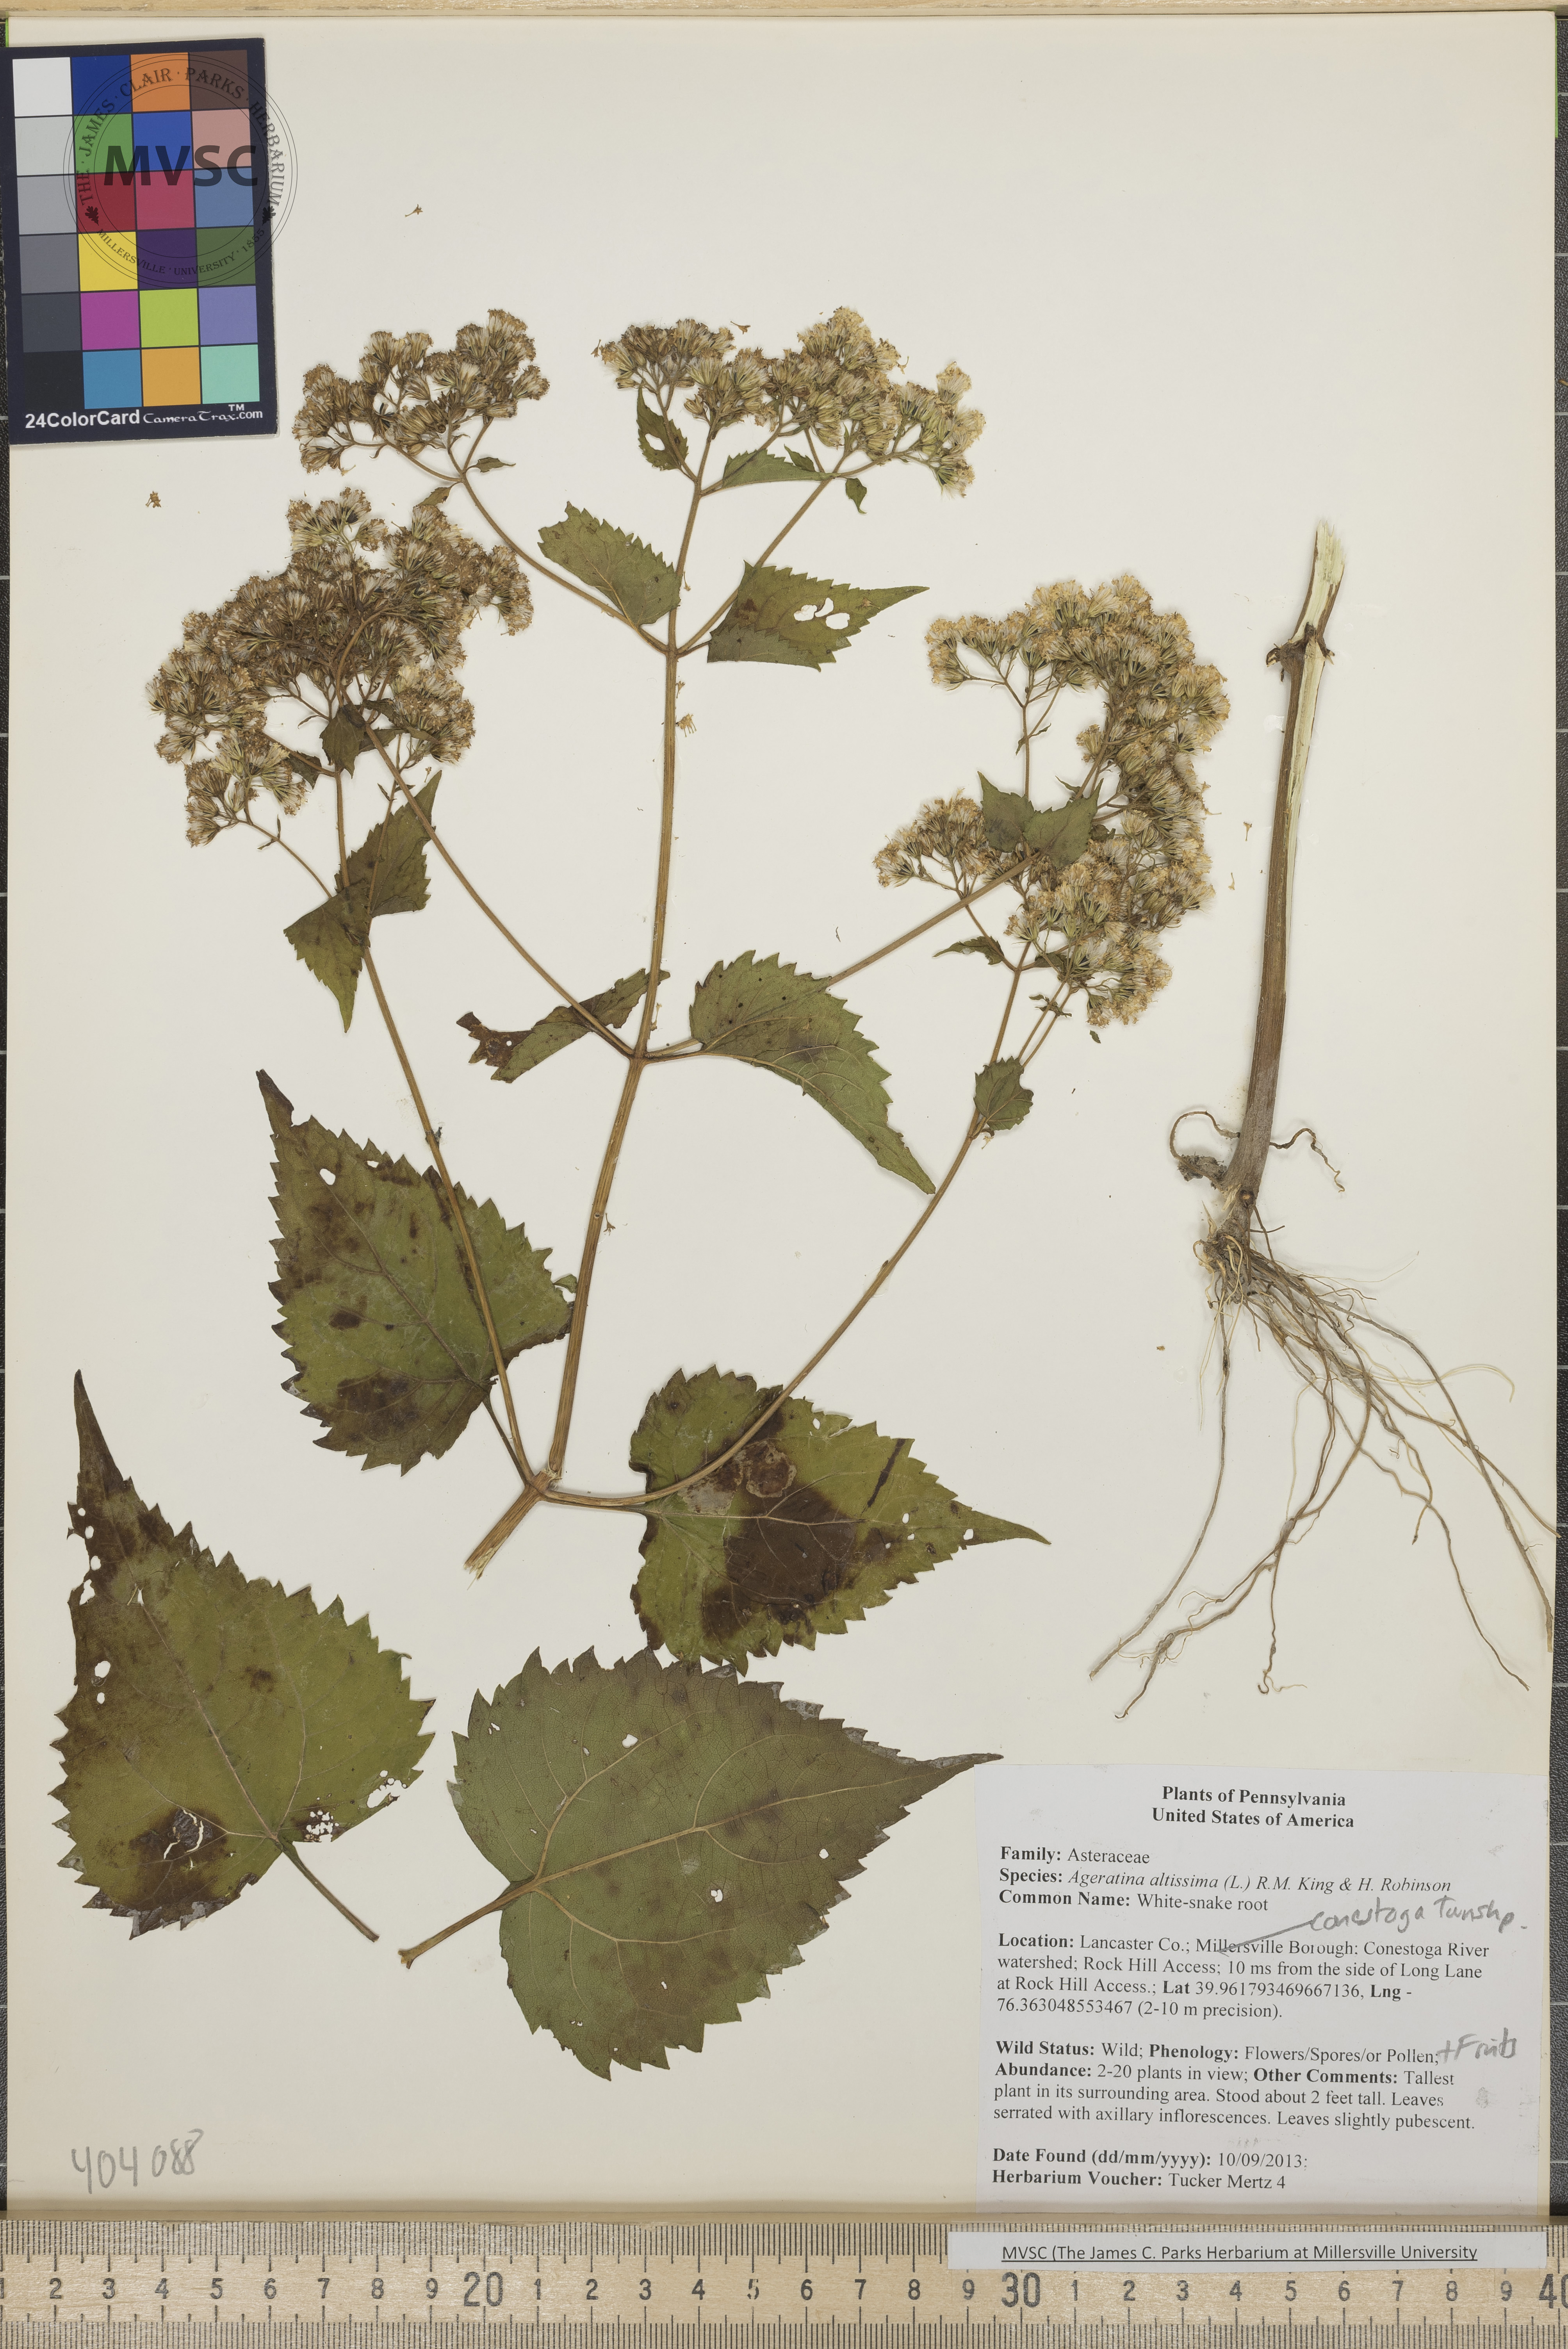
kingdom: Plantae
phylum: Tracheophyta
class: Magnoliopsida
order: Asterales
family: Asteraceae
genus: Ageratina
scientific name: Ageratina altissima
